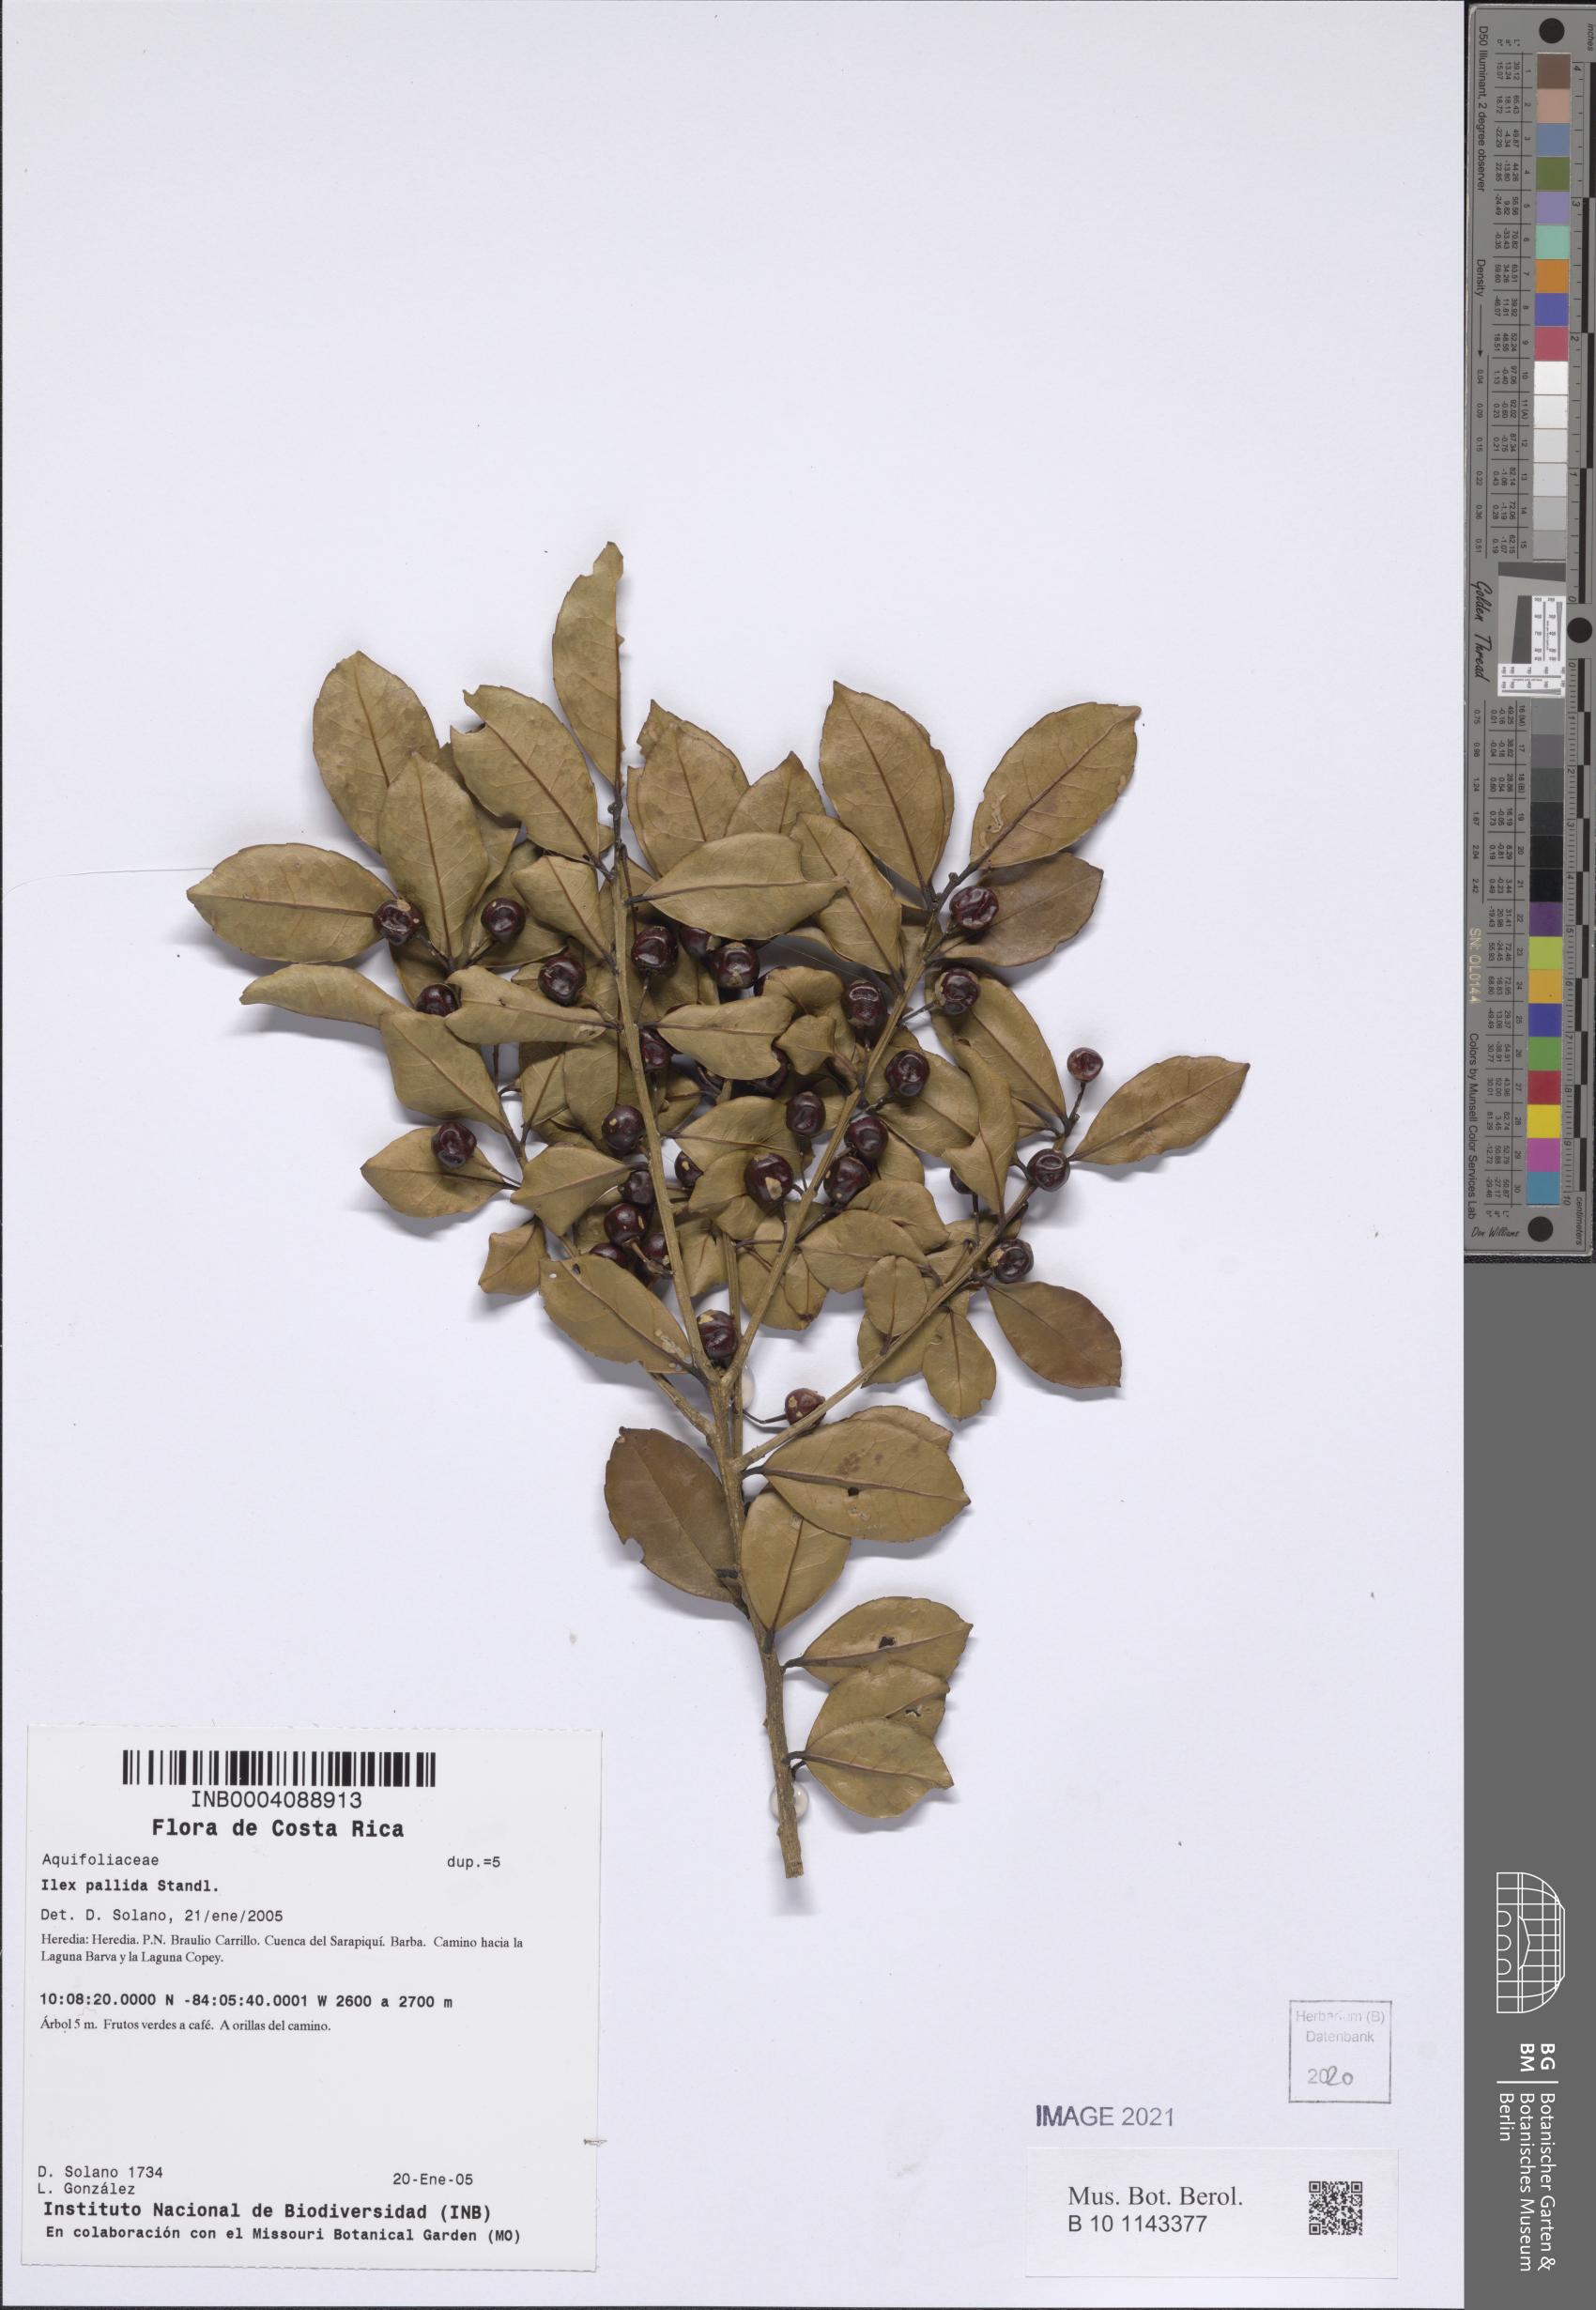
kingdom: Plantae
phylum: Tracheophyta
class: Magnoliopsida
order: Aquifoliales
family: Aquifoliaceae
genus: Ilex
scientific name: Ilex pallida
